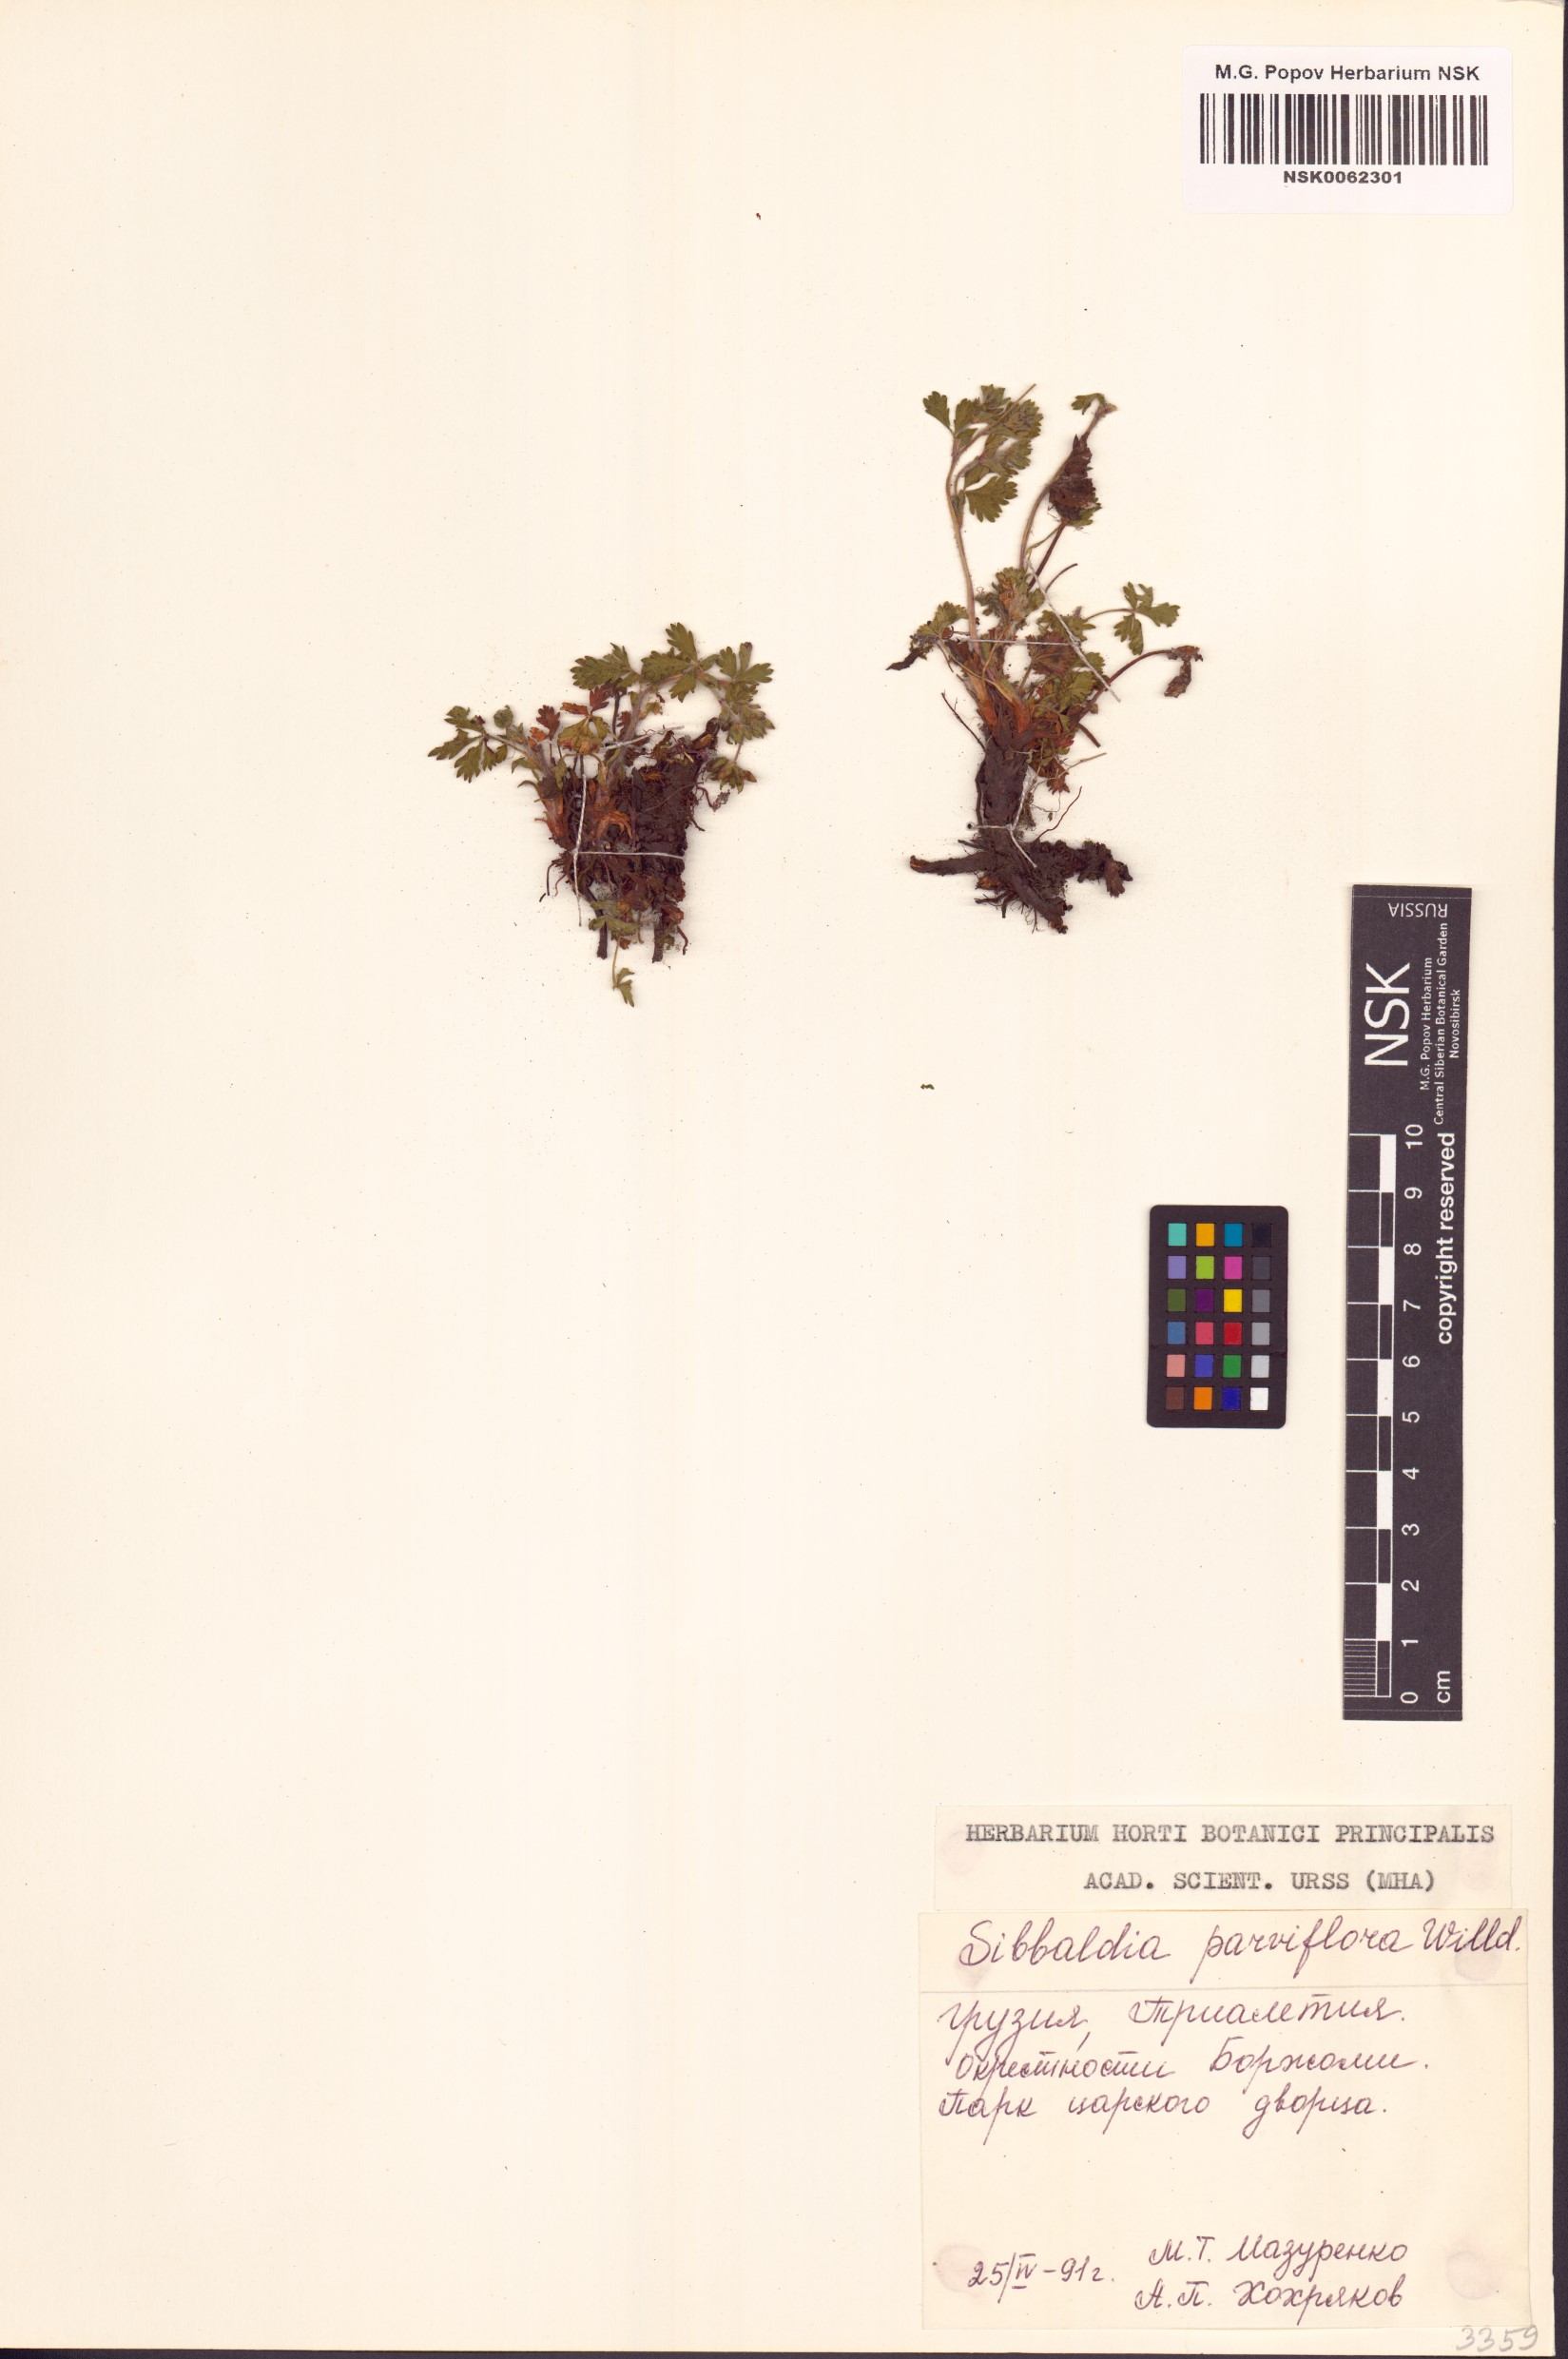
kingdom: Plantae
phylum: Tracheophyta
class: Magnoliopsida
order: Rosales
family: Rosaceae
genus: Sibbaldia
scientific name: Sibbaldia parviflora
